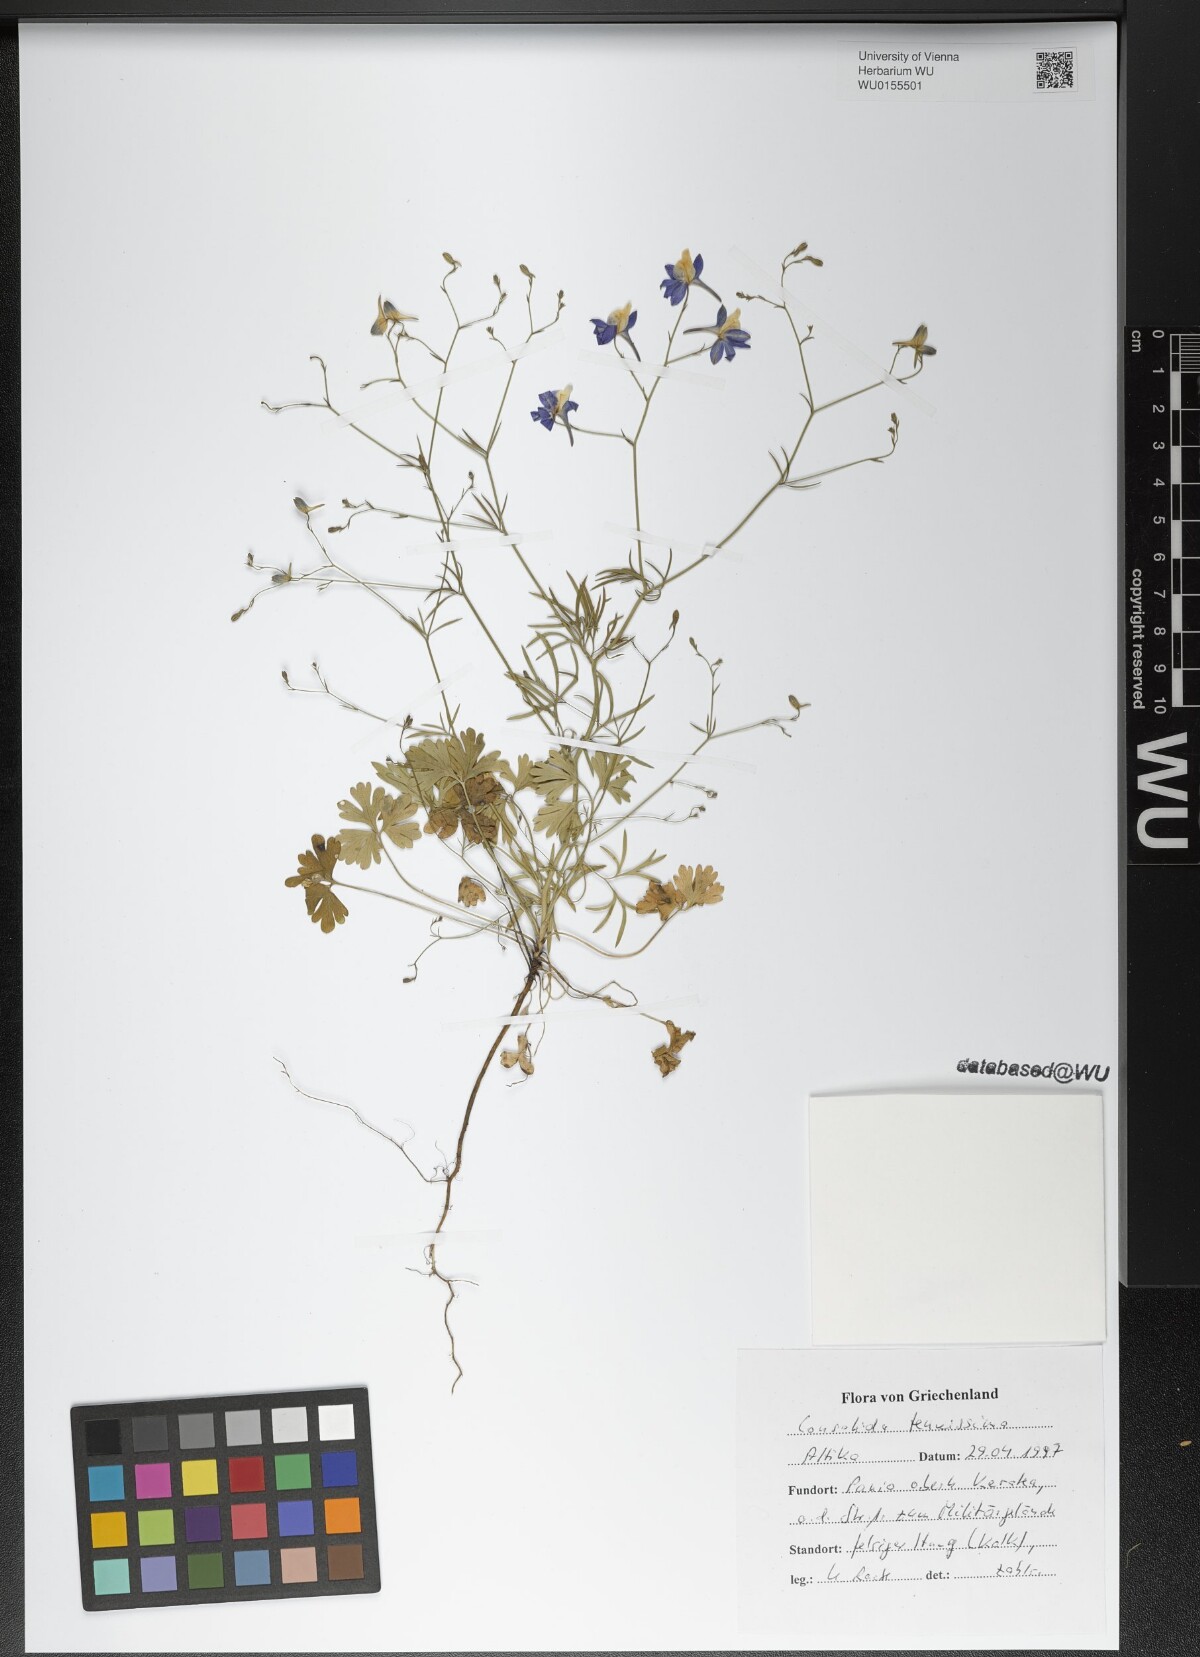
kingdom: Plantae
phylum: Tracheophyta
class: Magnoliopsida
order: Ranunculales
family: Ranunculaceae
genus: Delphinium
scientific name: Delphinium tenuissimum
